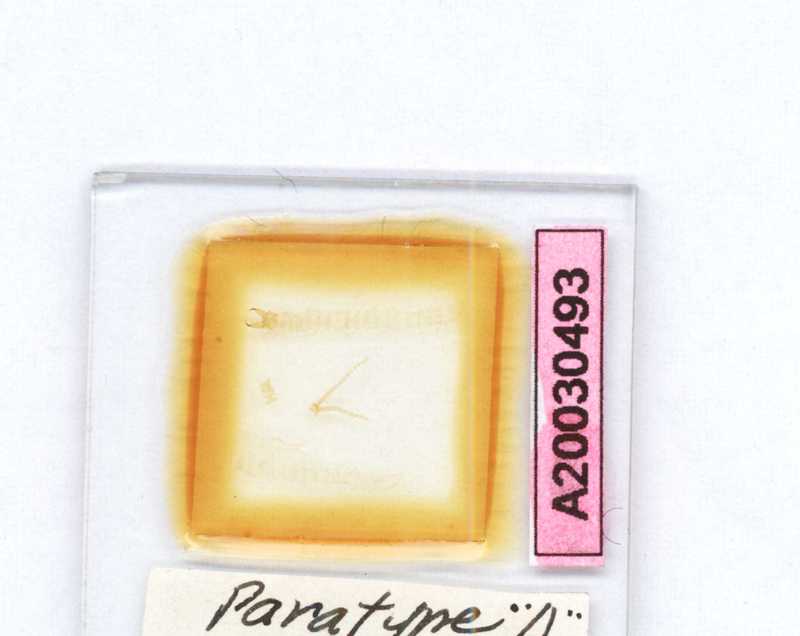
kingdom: Animalia
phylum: Arthropoda
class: Chilopoda
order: Geophilomorpha
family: Geophilidae
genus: Queenslandophilus
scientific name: Queenslandophilus elongatus
